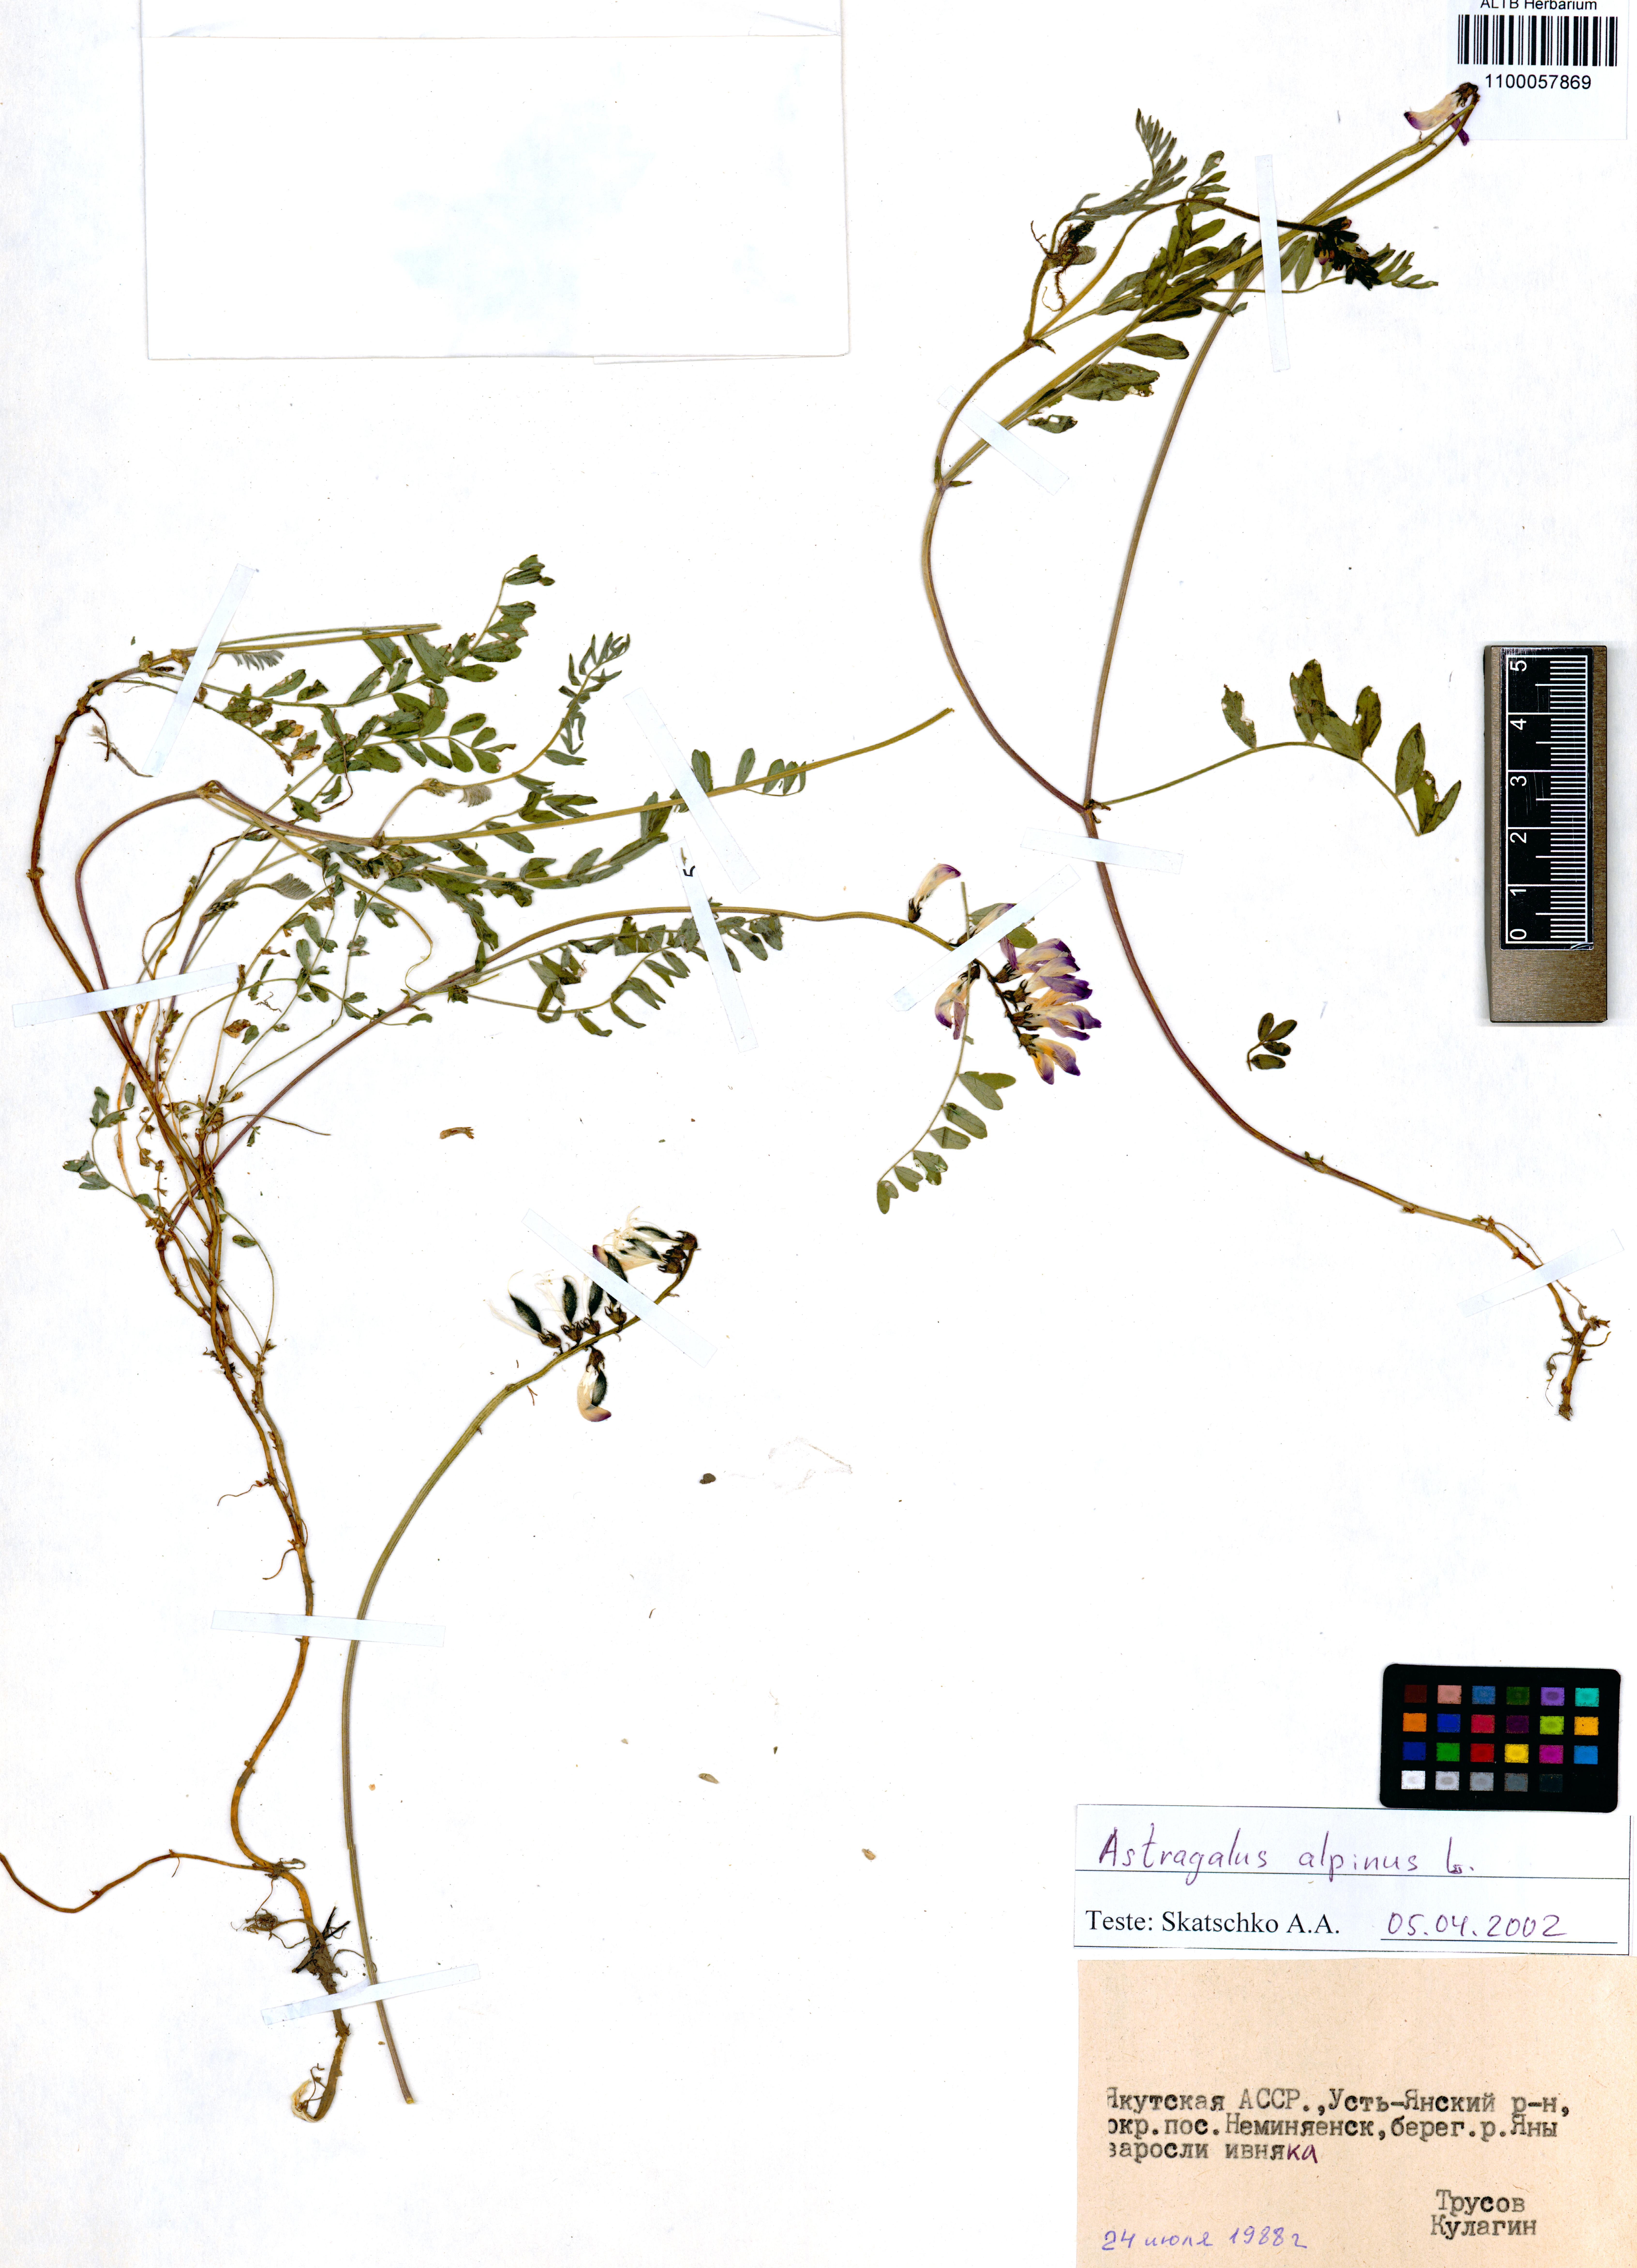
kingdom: Plantae
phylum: Tracheophyta
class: Magnoliopsida
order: Fabales
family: Fabaceae
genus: Astragalus
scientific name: Astragalus alpinus
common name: Alpine milk-vetch
